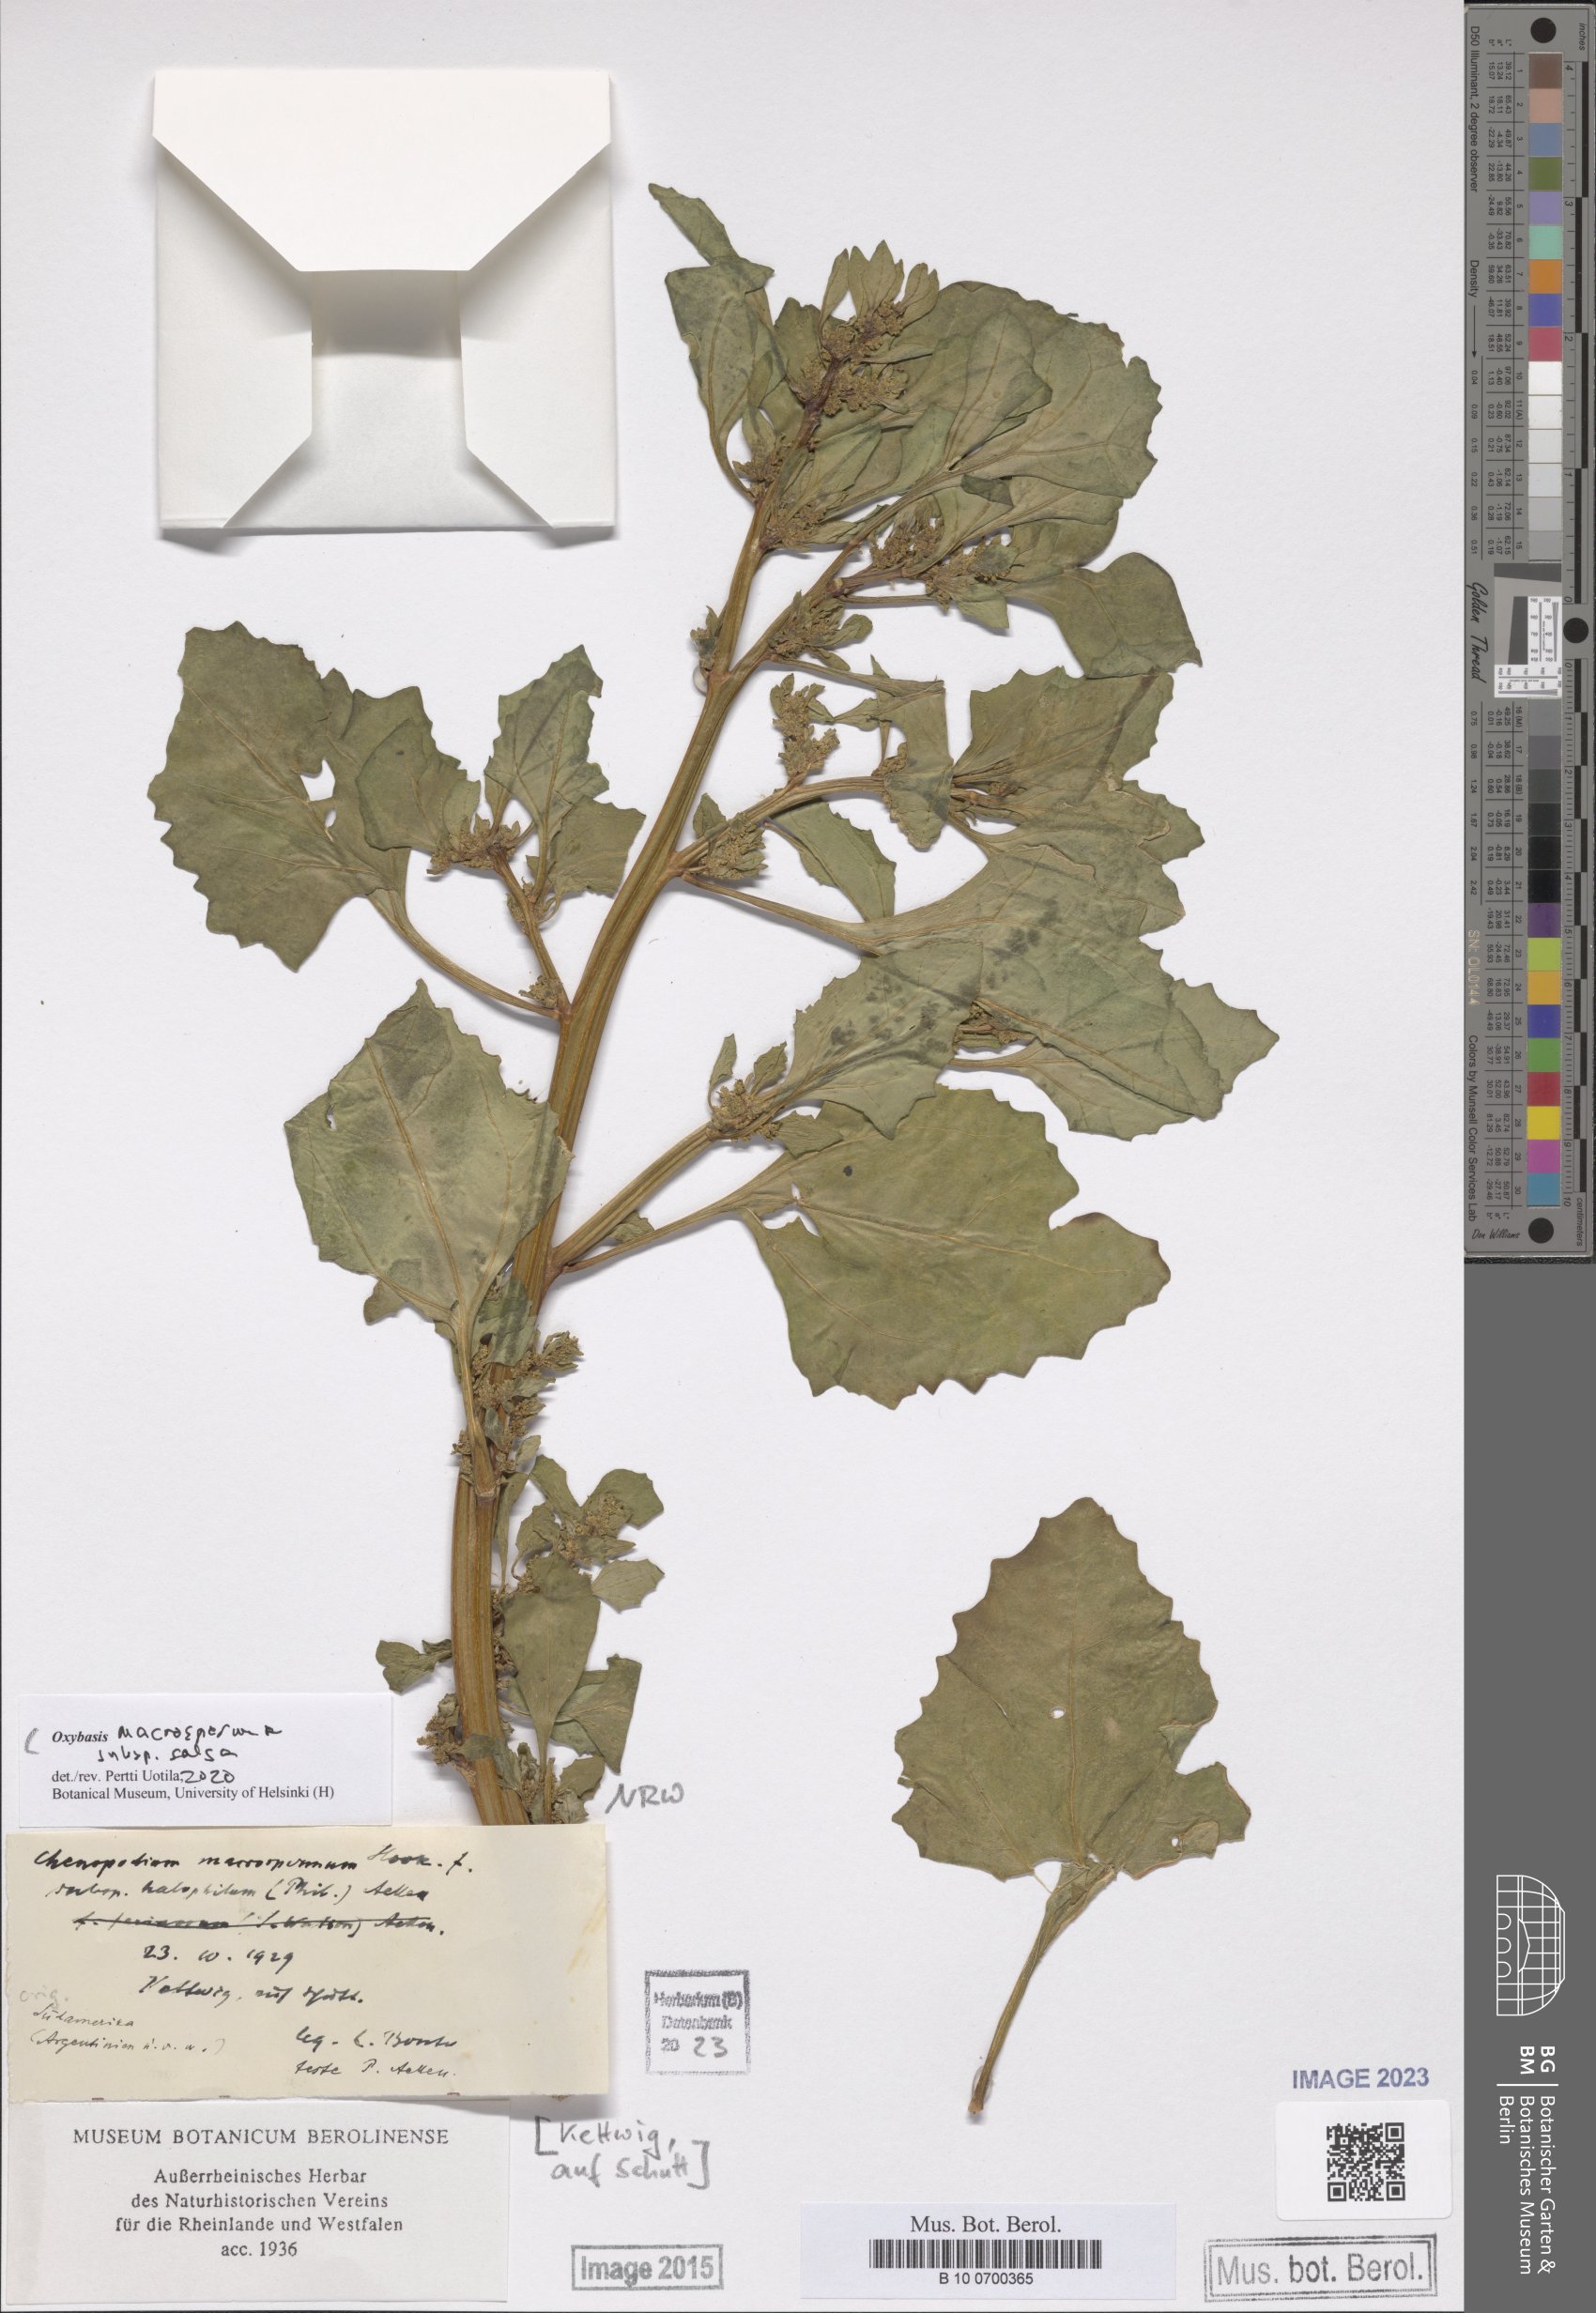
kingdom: Plantae
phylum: Tracheophyta
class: Magnoliopsida
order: Caryophyllales
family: Amaranthaceae
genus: Oxybasis
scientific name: Oxybasis macrosperma
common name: Large-seed goosefoot
